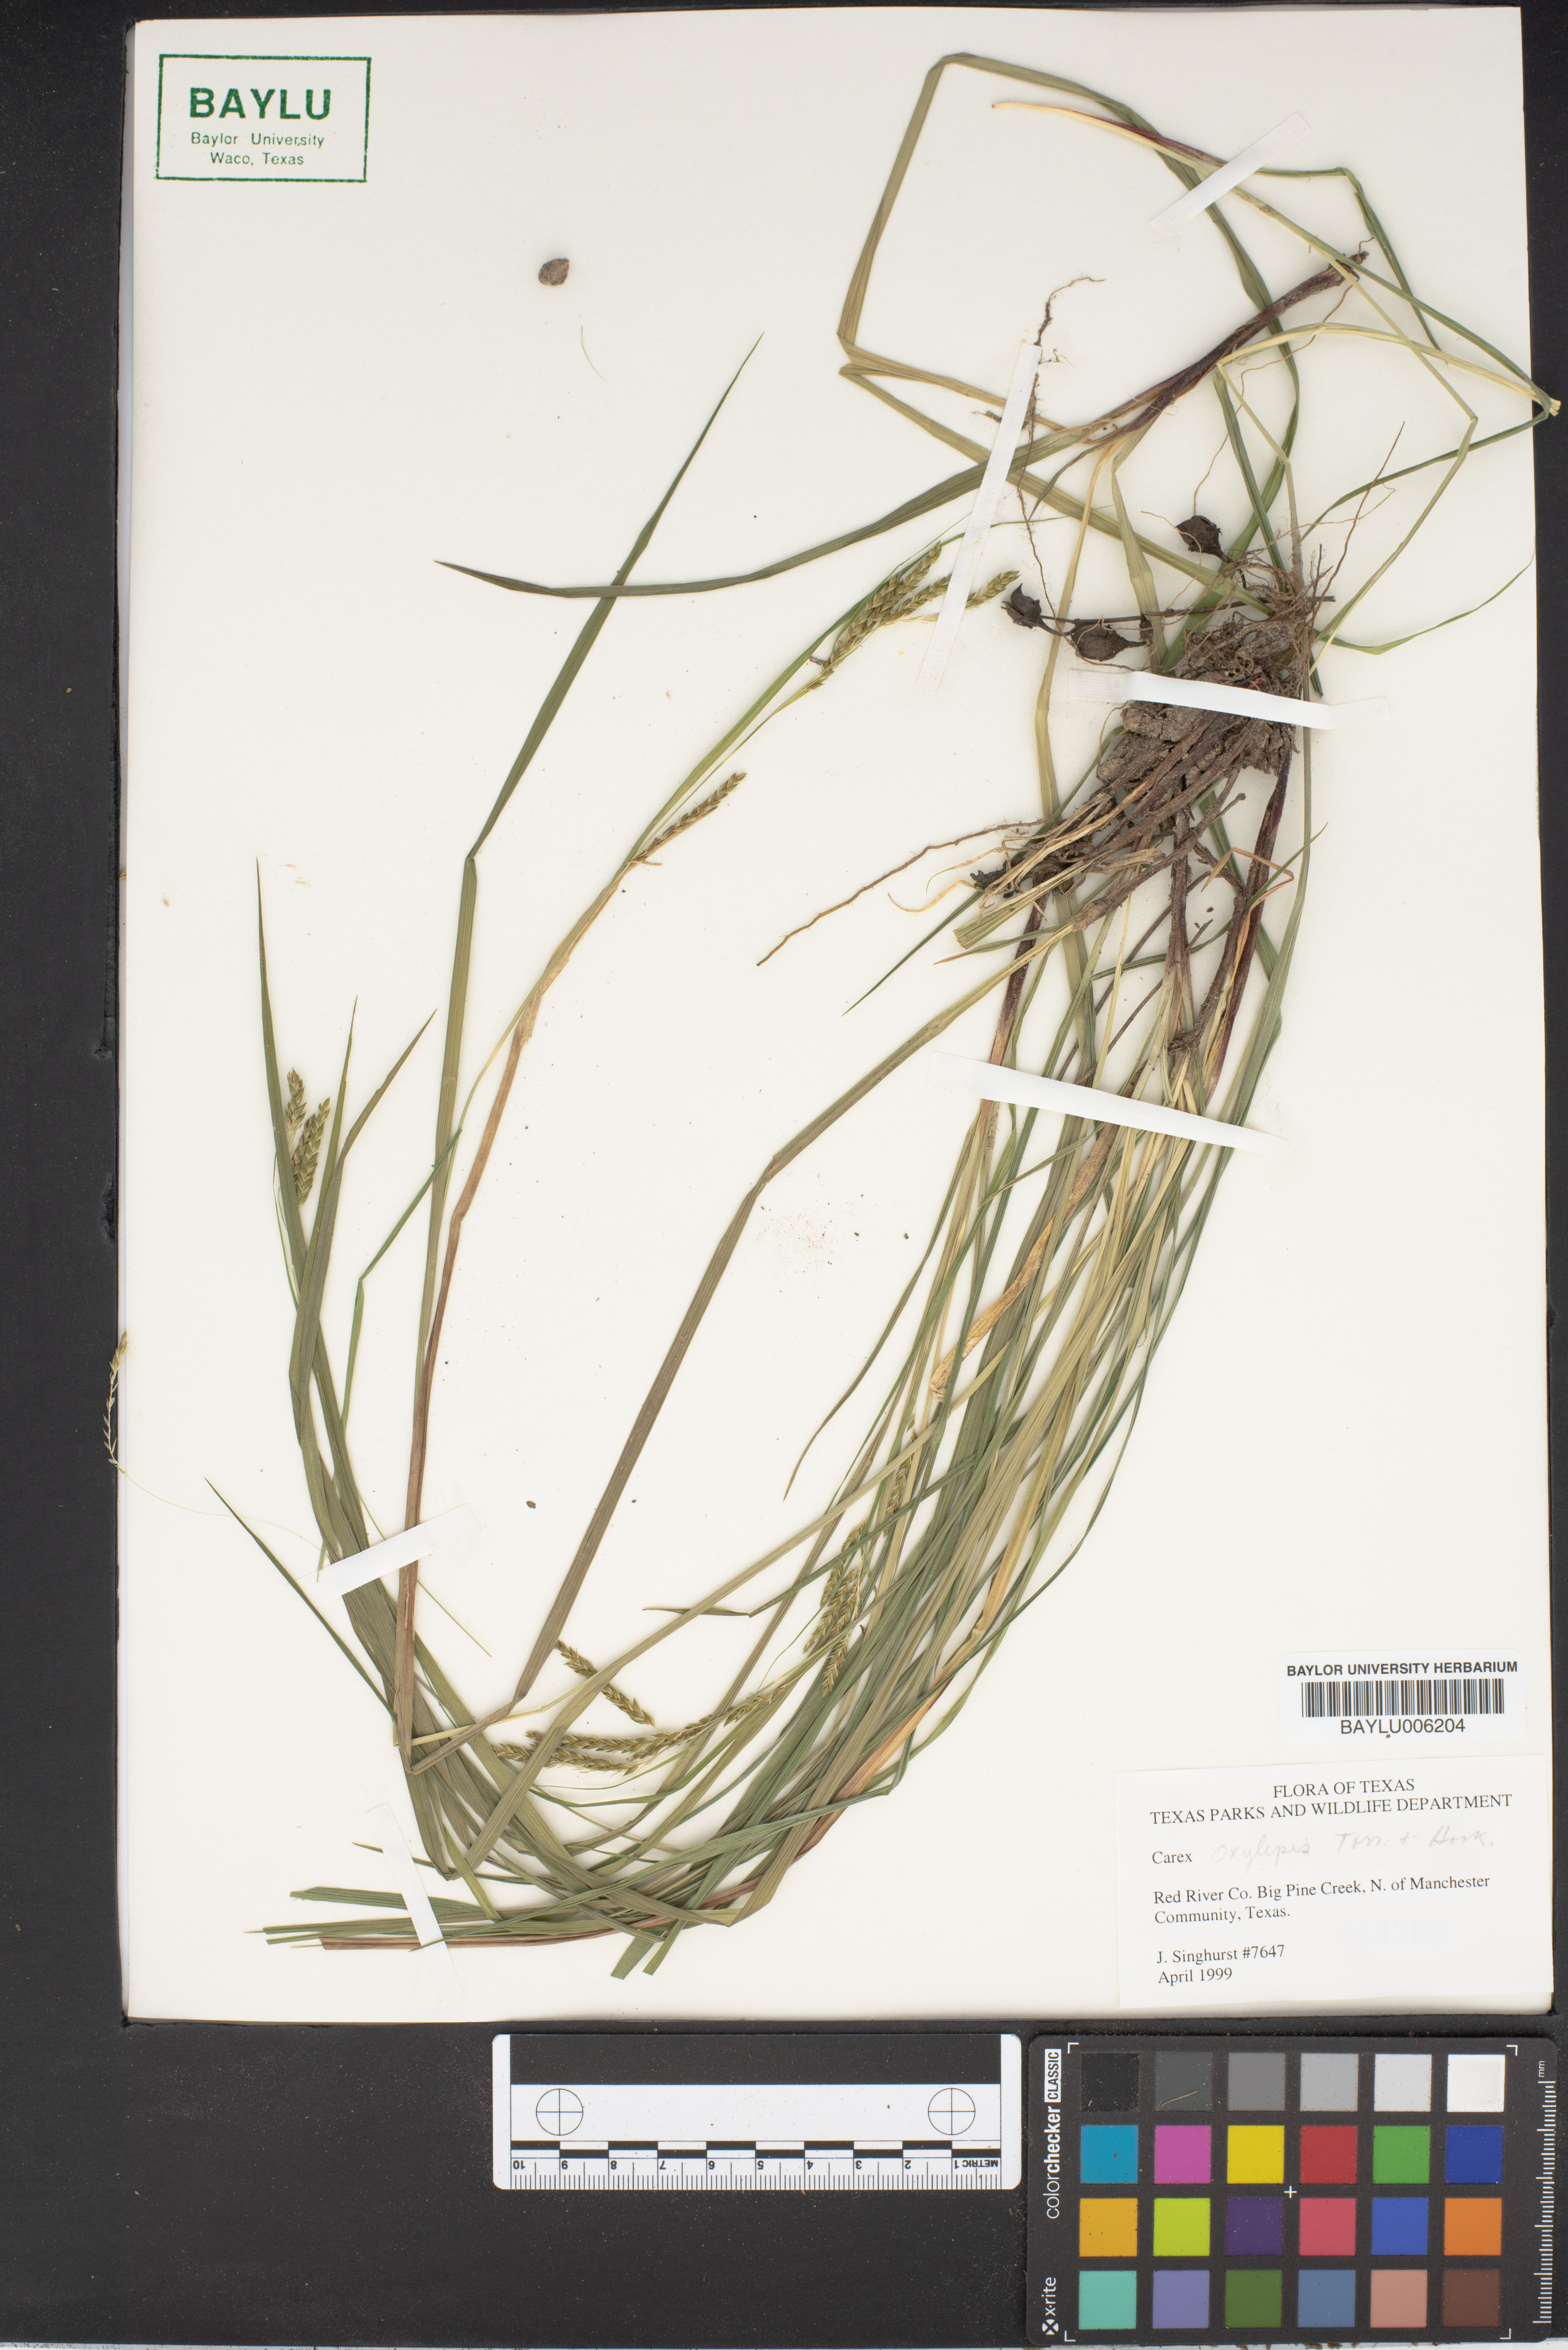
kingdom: Plantae
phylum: Tracheophyta
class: Liliopsida
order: Poales
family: Cyperaceae
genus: Carex
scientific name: Carex
